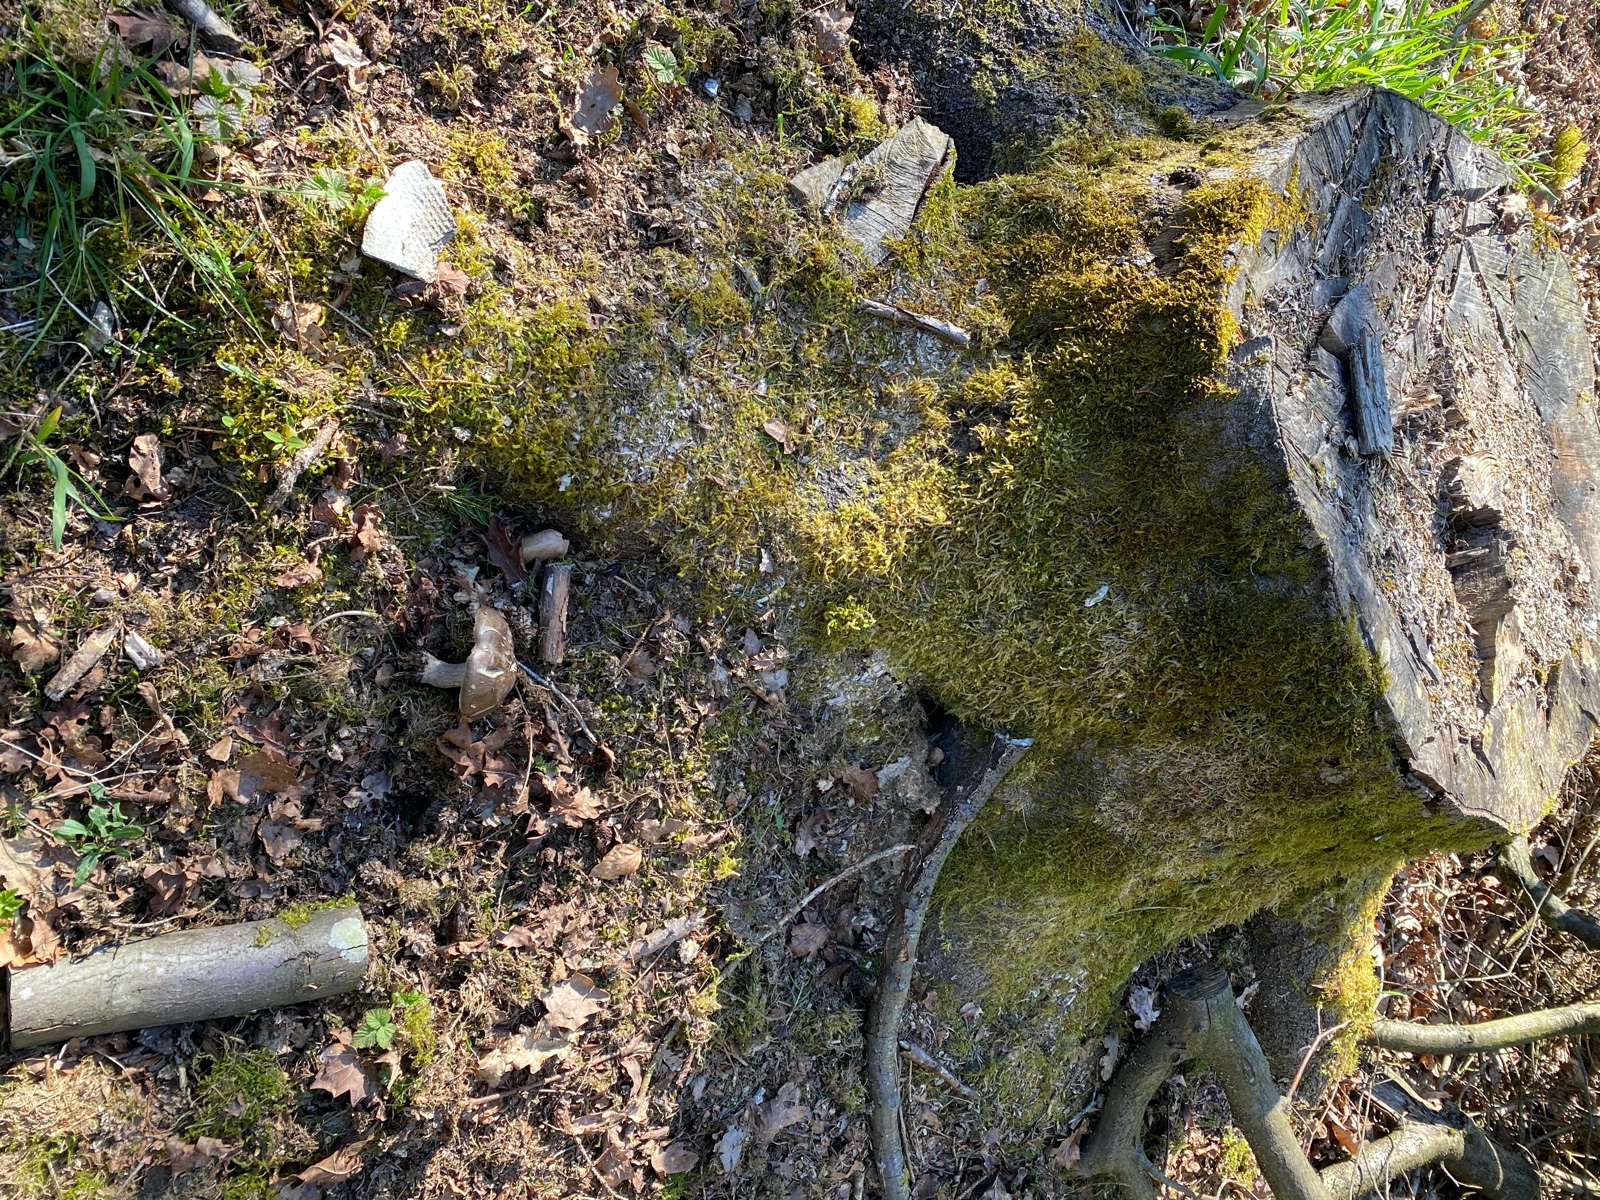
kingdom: Fungi
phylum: Basidiomycota
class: Agaricomycetes
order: Agaricales
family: Pluteaceae
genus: Pluteus
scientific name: Pluteus
